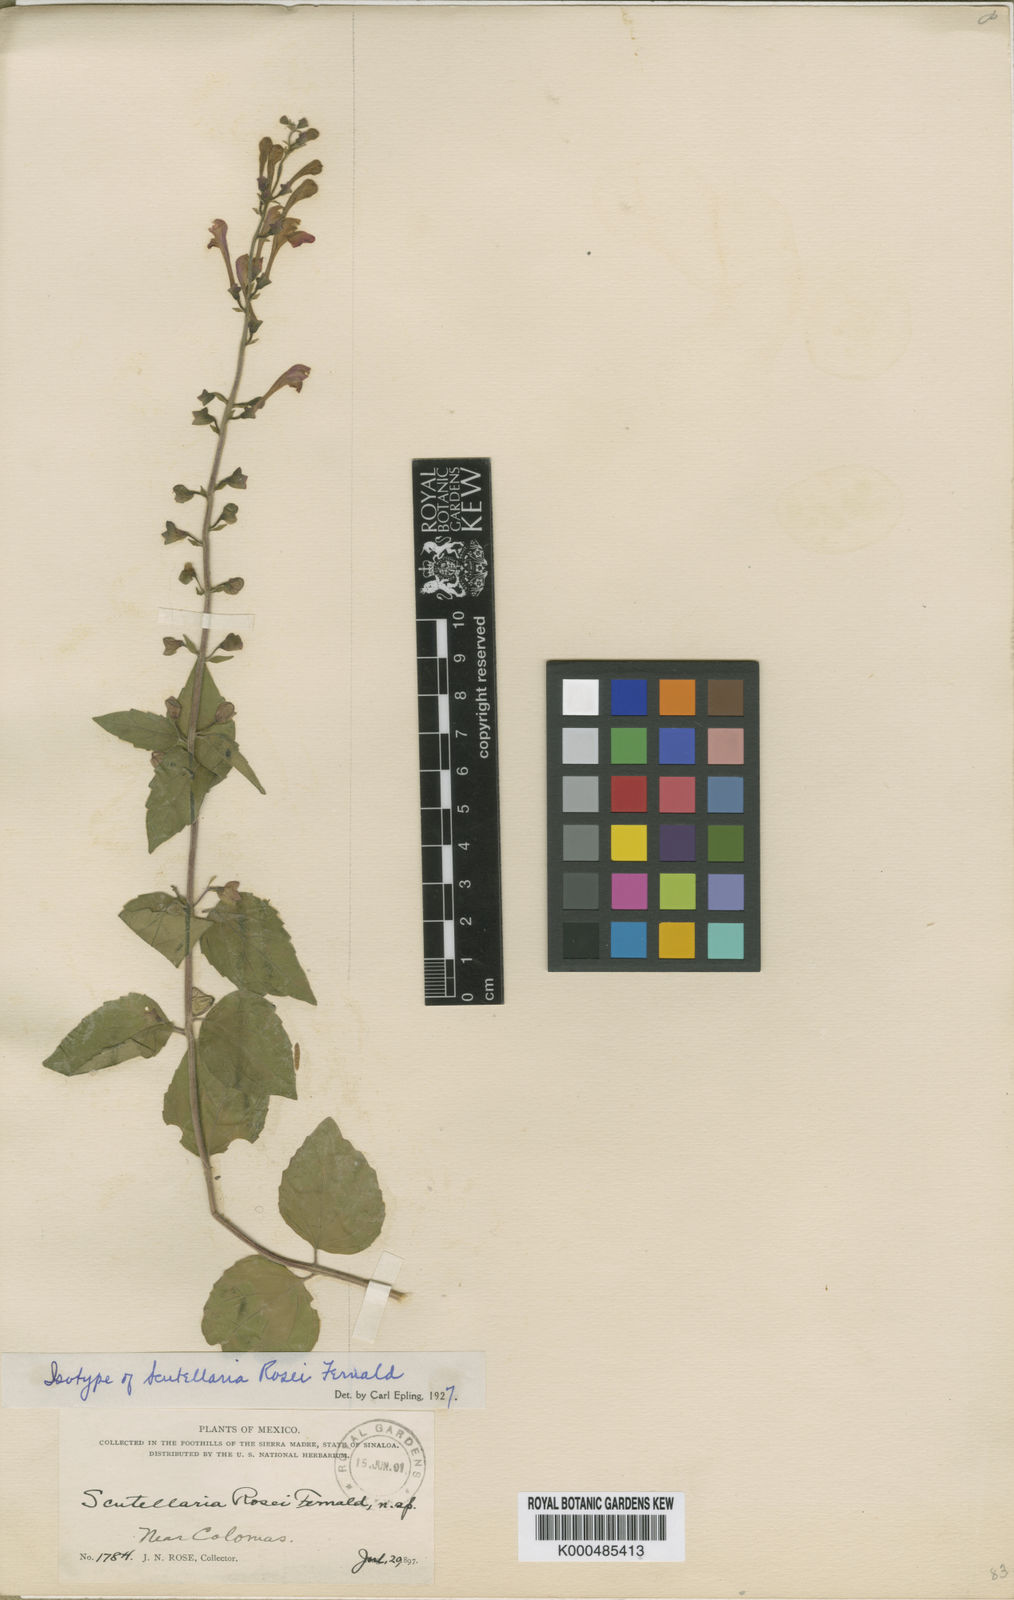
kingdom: Plantae
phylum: Tracheophyta
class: Magnoliopsida
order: Lamiales
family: Lamiaceae
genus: Scutellaria
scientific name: Scutellaria rosei
